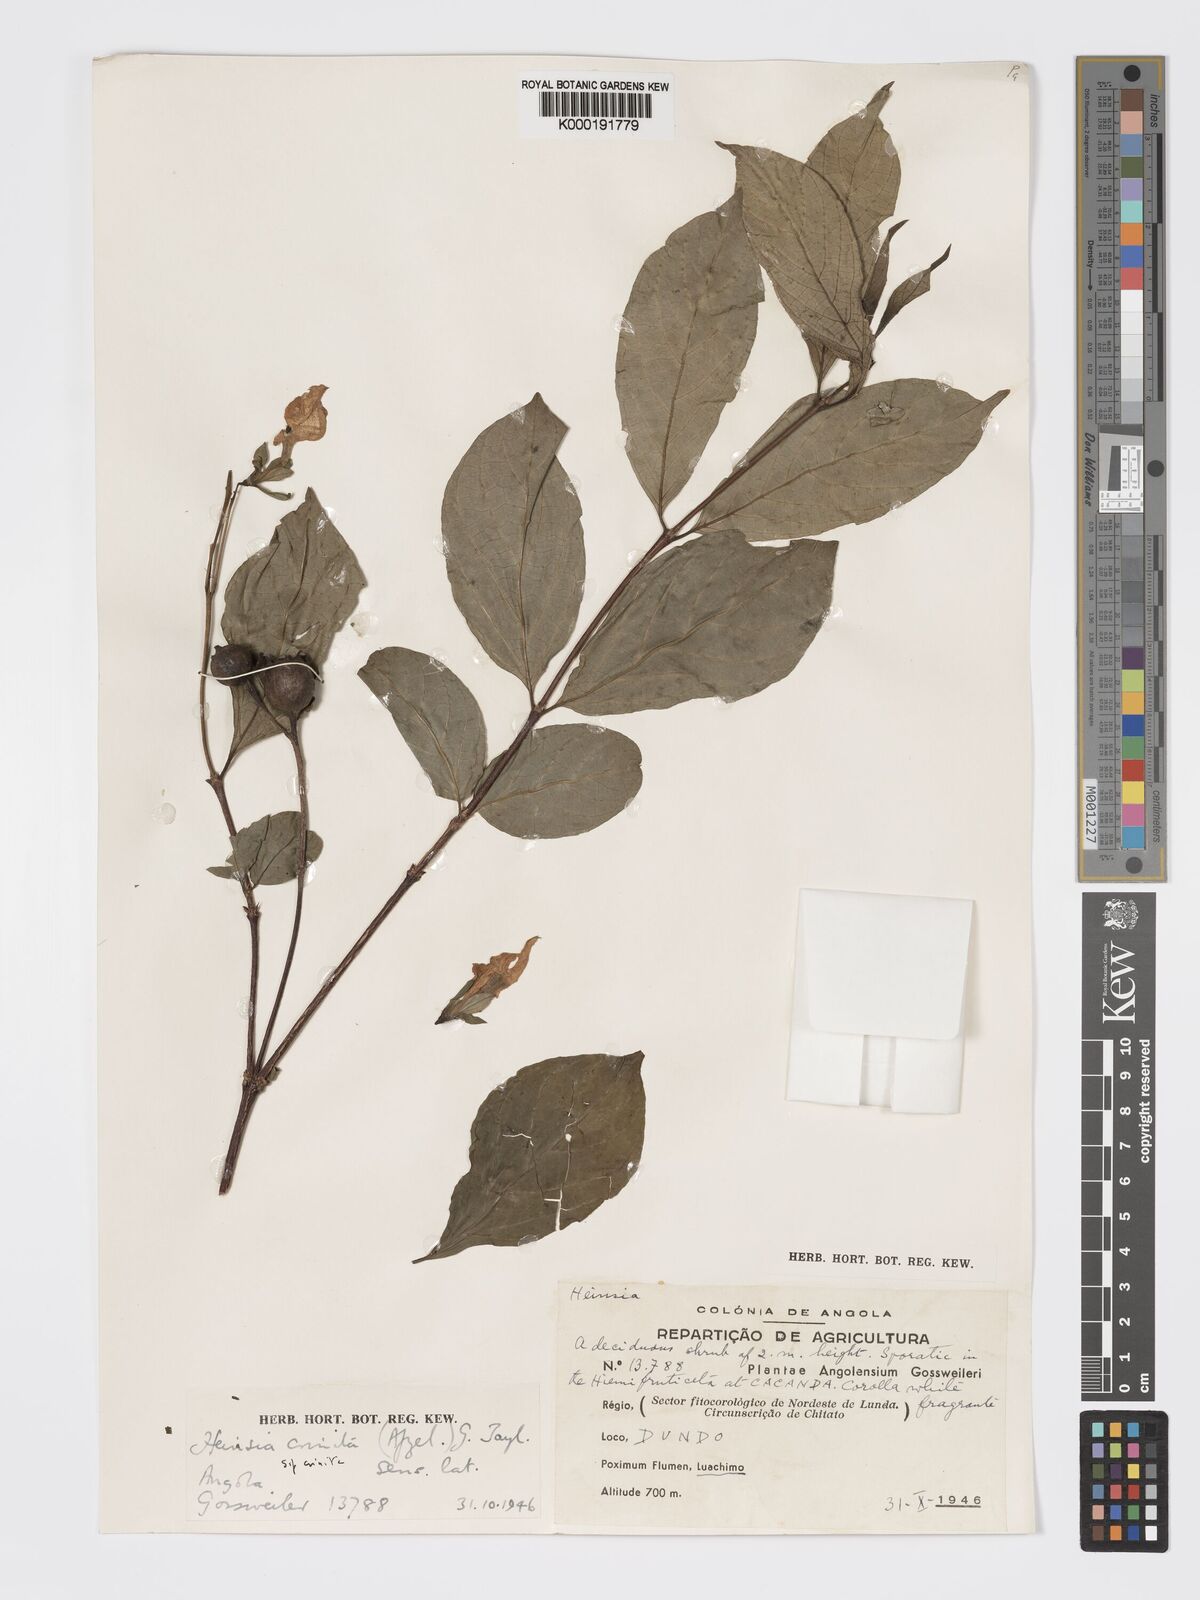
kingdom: Plantae
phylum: Tracheophyta
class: Magnoliopsida
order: Gentianales
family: Rubiaceae
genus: Heinsia
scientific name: Heinsia crinita
